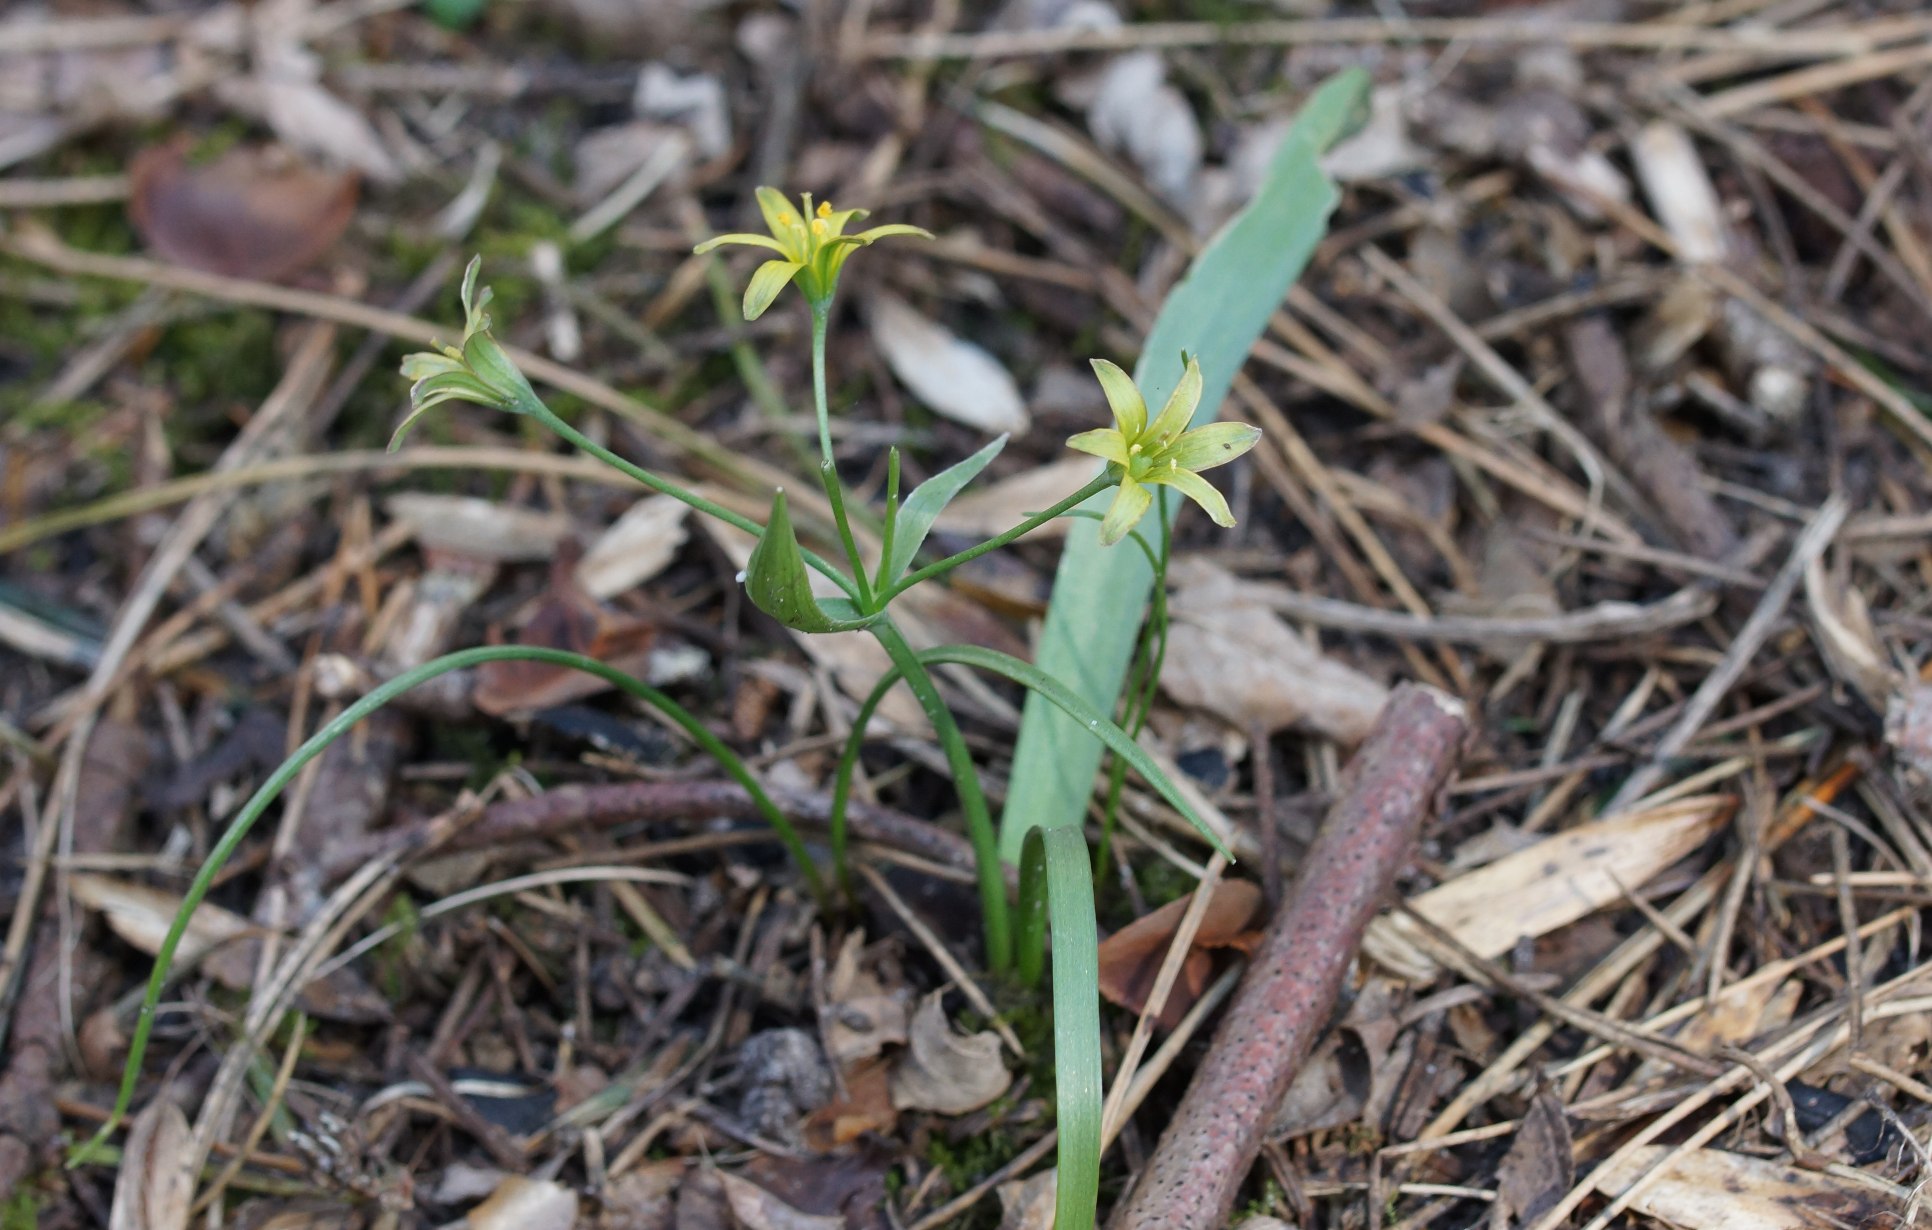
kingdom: Plantae
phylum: Tracheophyta
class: Liliopsida
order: Liliales
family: Liliaceae
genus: Gagea
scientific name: Gagea lutea
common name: Almindelig guldstjerne
